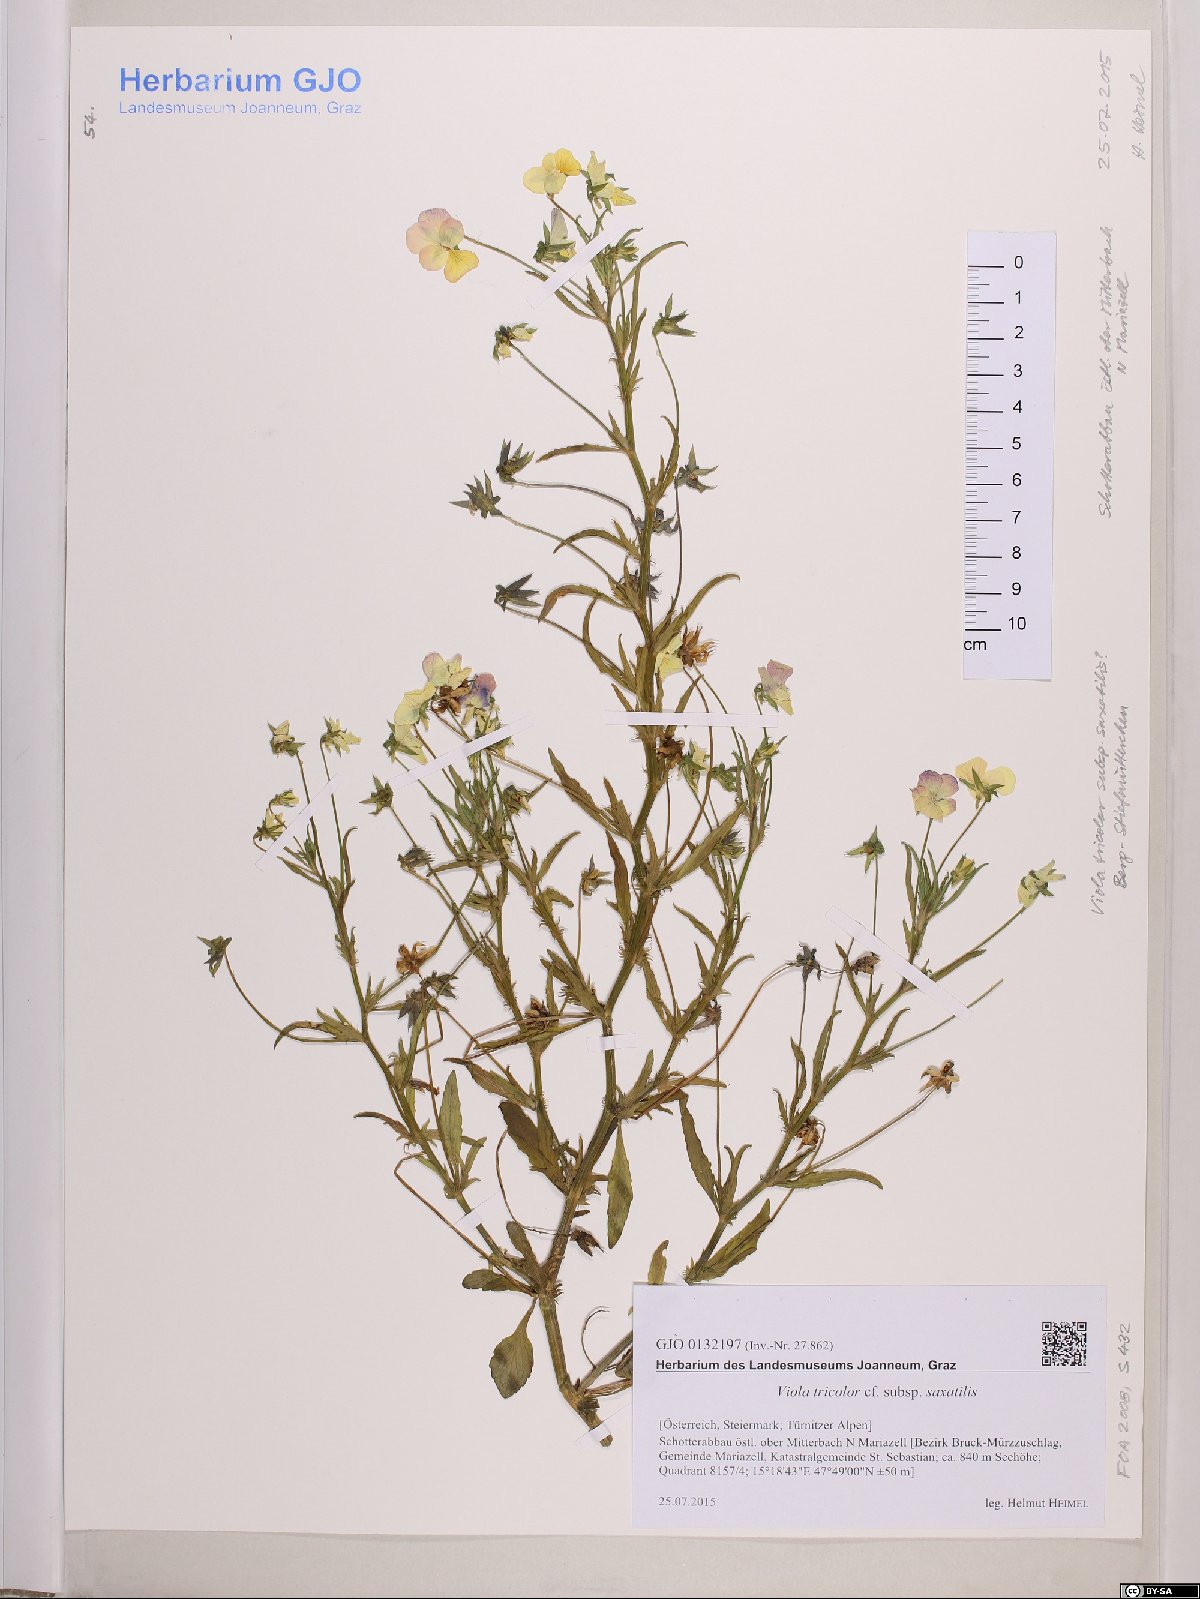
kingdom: Plantae
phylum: Tracheophyta
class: Magnoliopsida
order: Malpighiales
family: Violaceae
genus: Viola
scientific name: Viola tricolor
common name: Pansy
